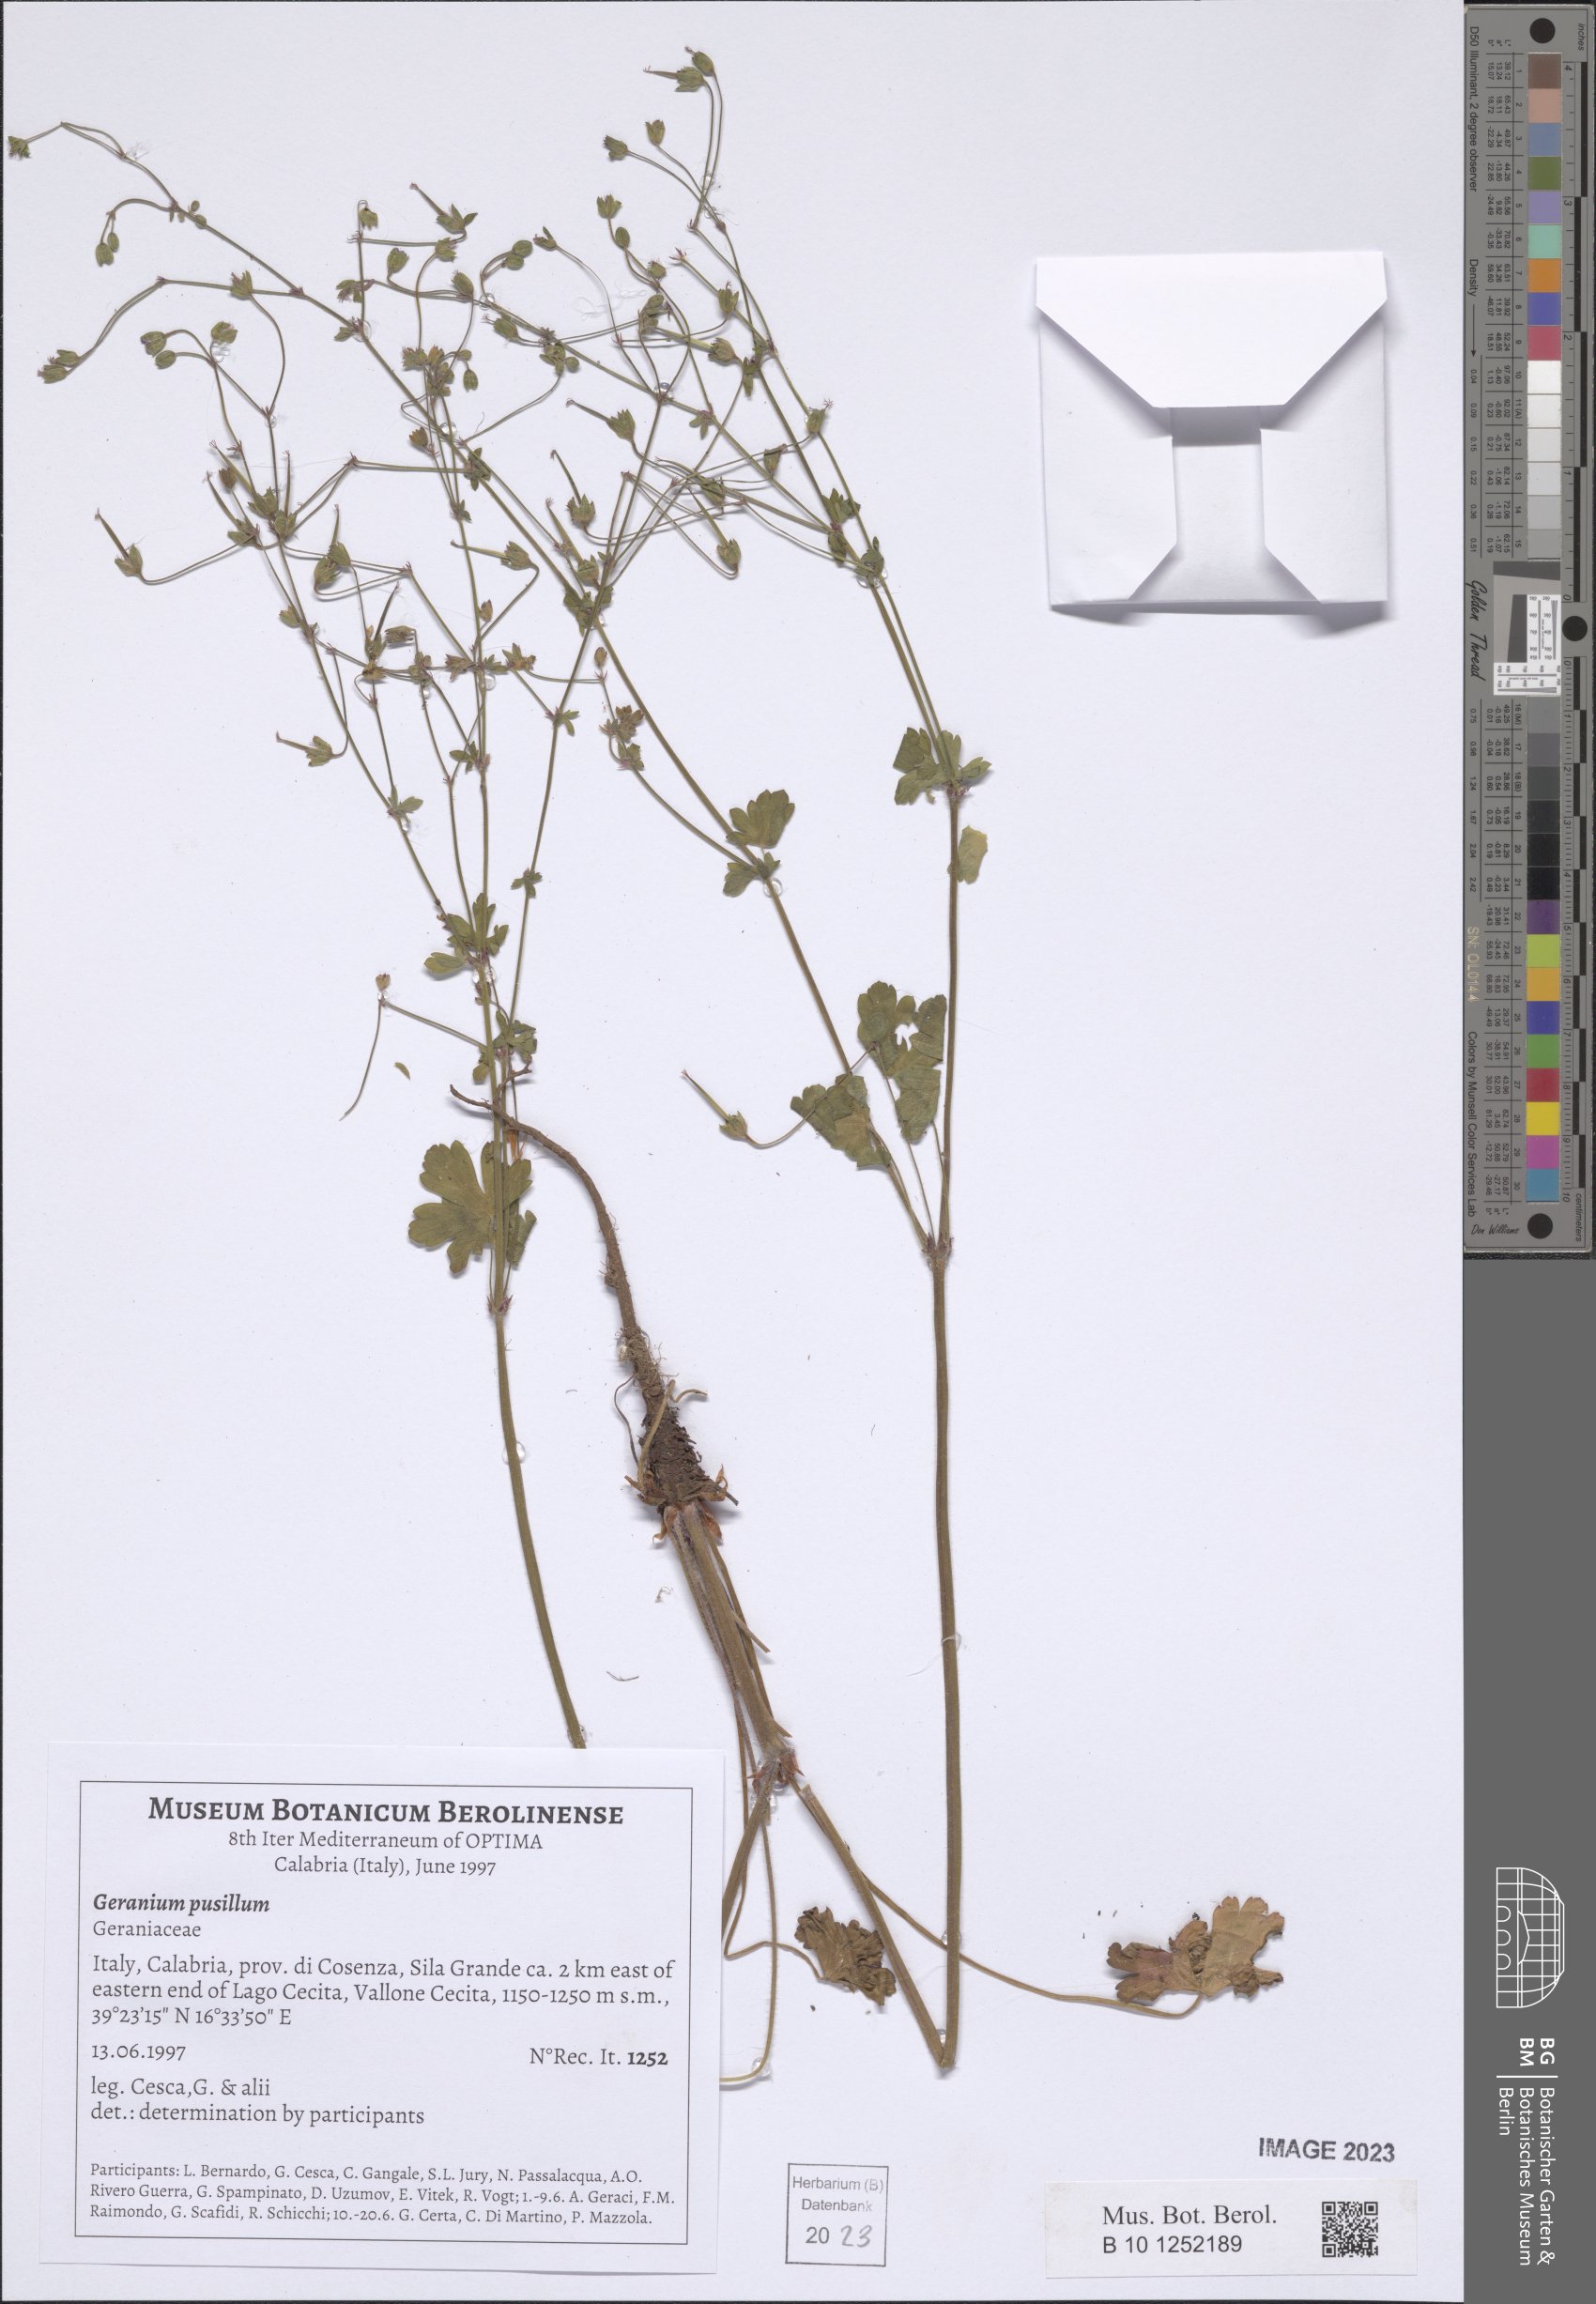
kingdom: Plantae
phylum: Tracheophyta
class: Magnoliopsida
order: Geraniales
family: Geraniaceae
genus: Geranium
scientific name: Geranium pusillum
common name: Small geranium
